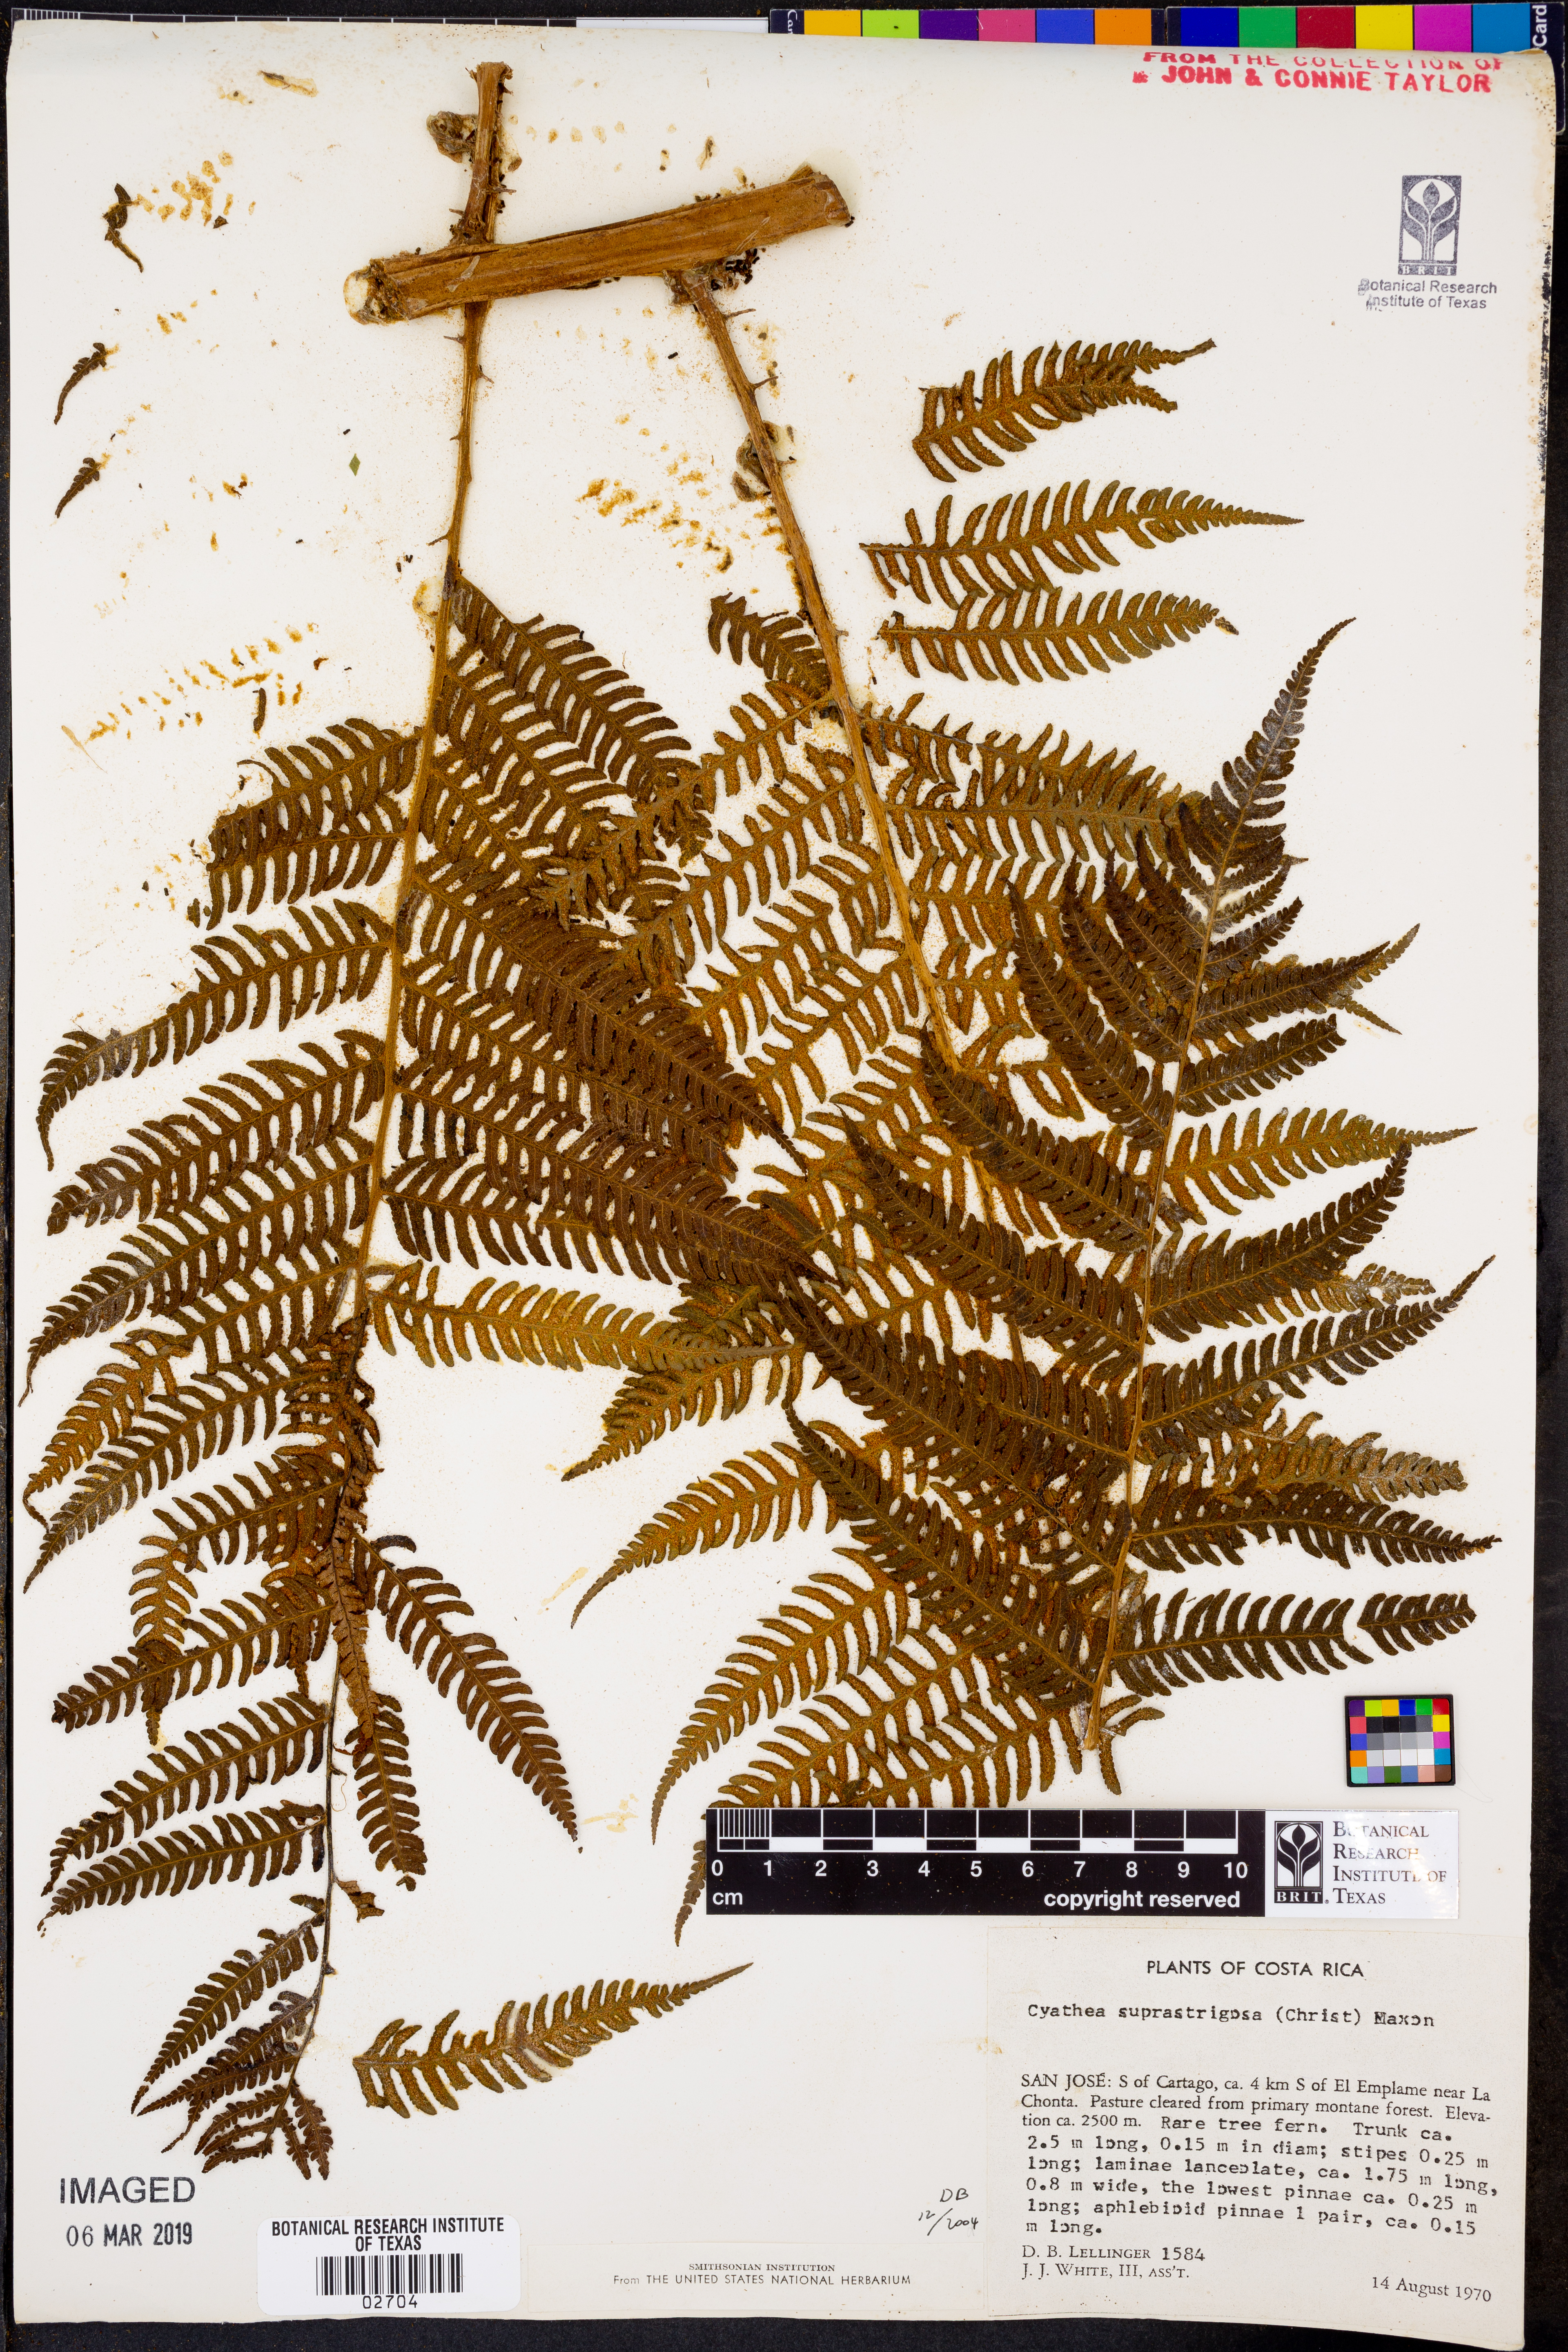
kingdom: Plantae
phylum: Tracheophyta
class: Polypodiopsida
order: Cyatheales
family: Cyatheaceae
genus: Cyathea
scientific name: Cyathea suprastrigosa
